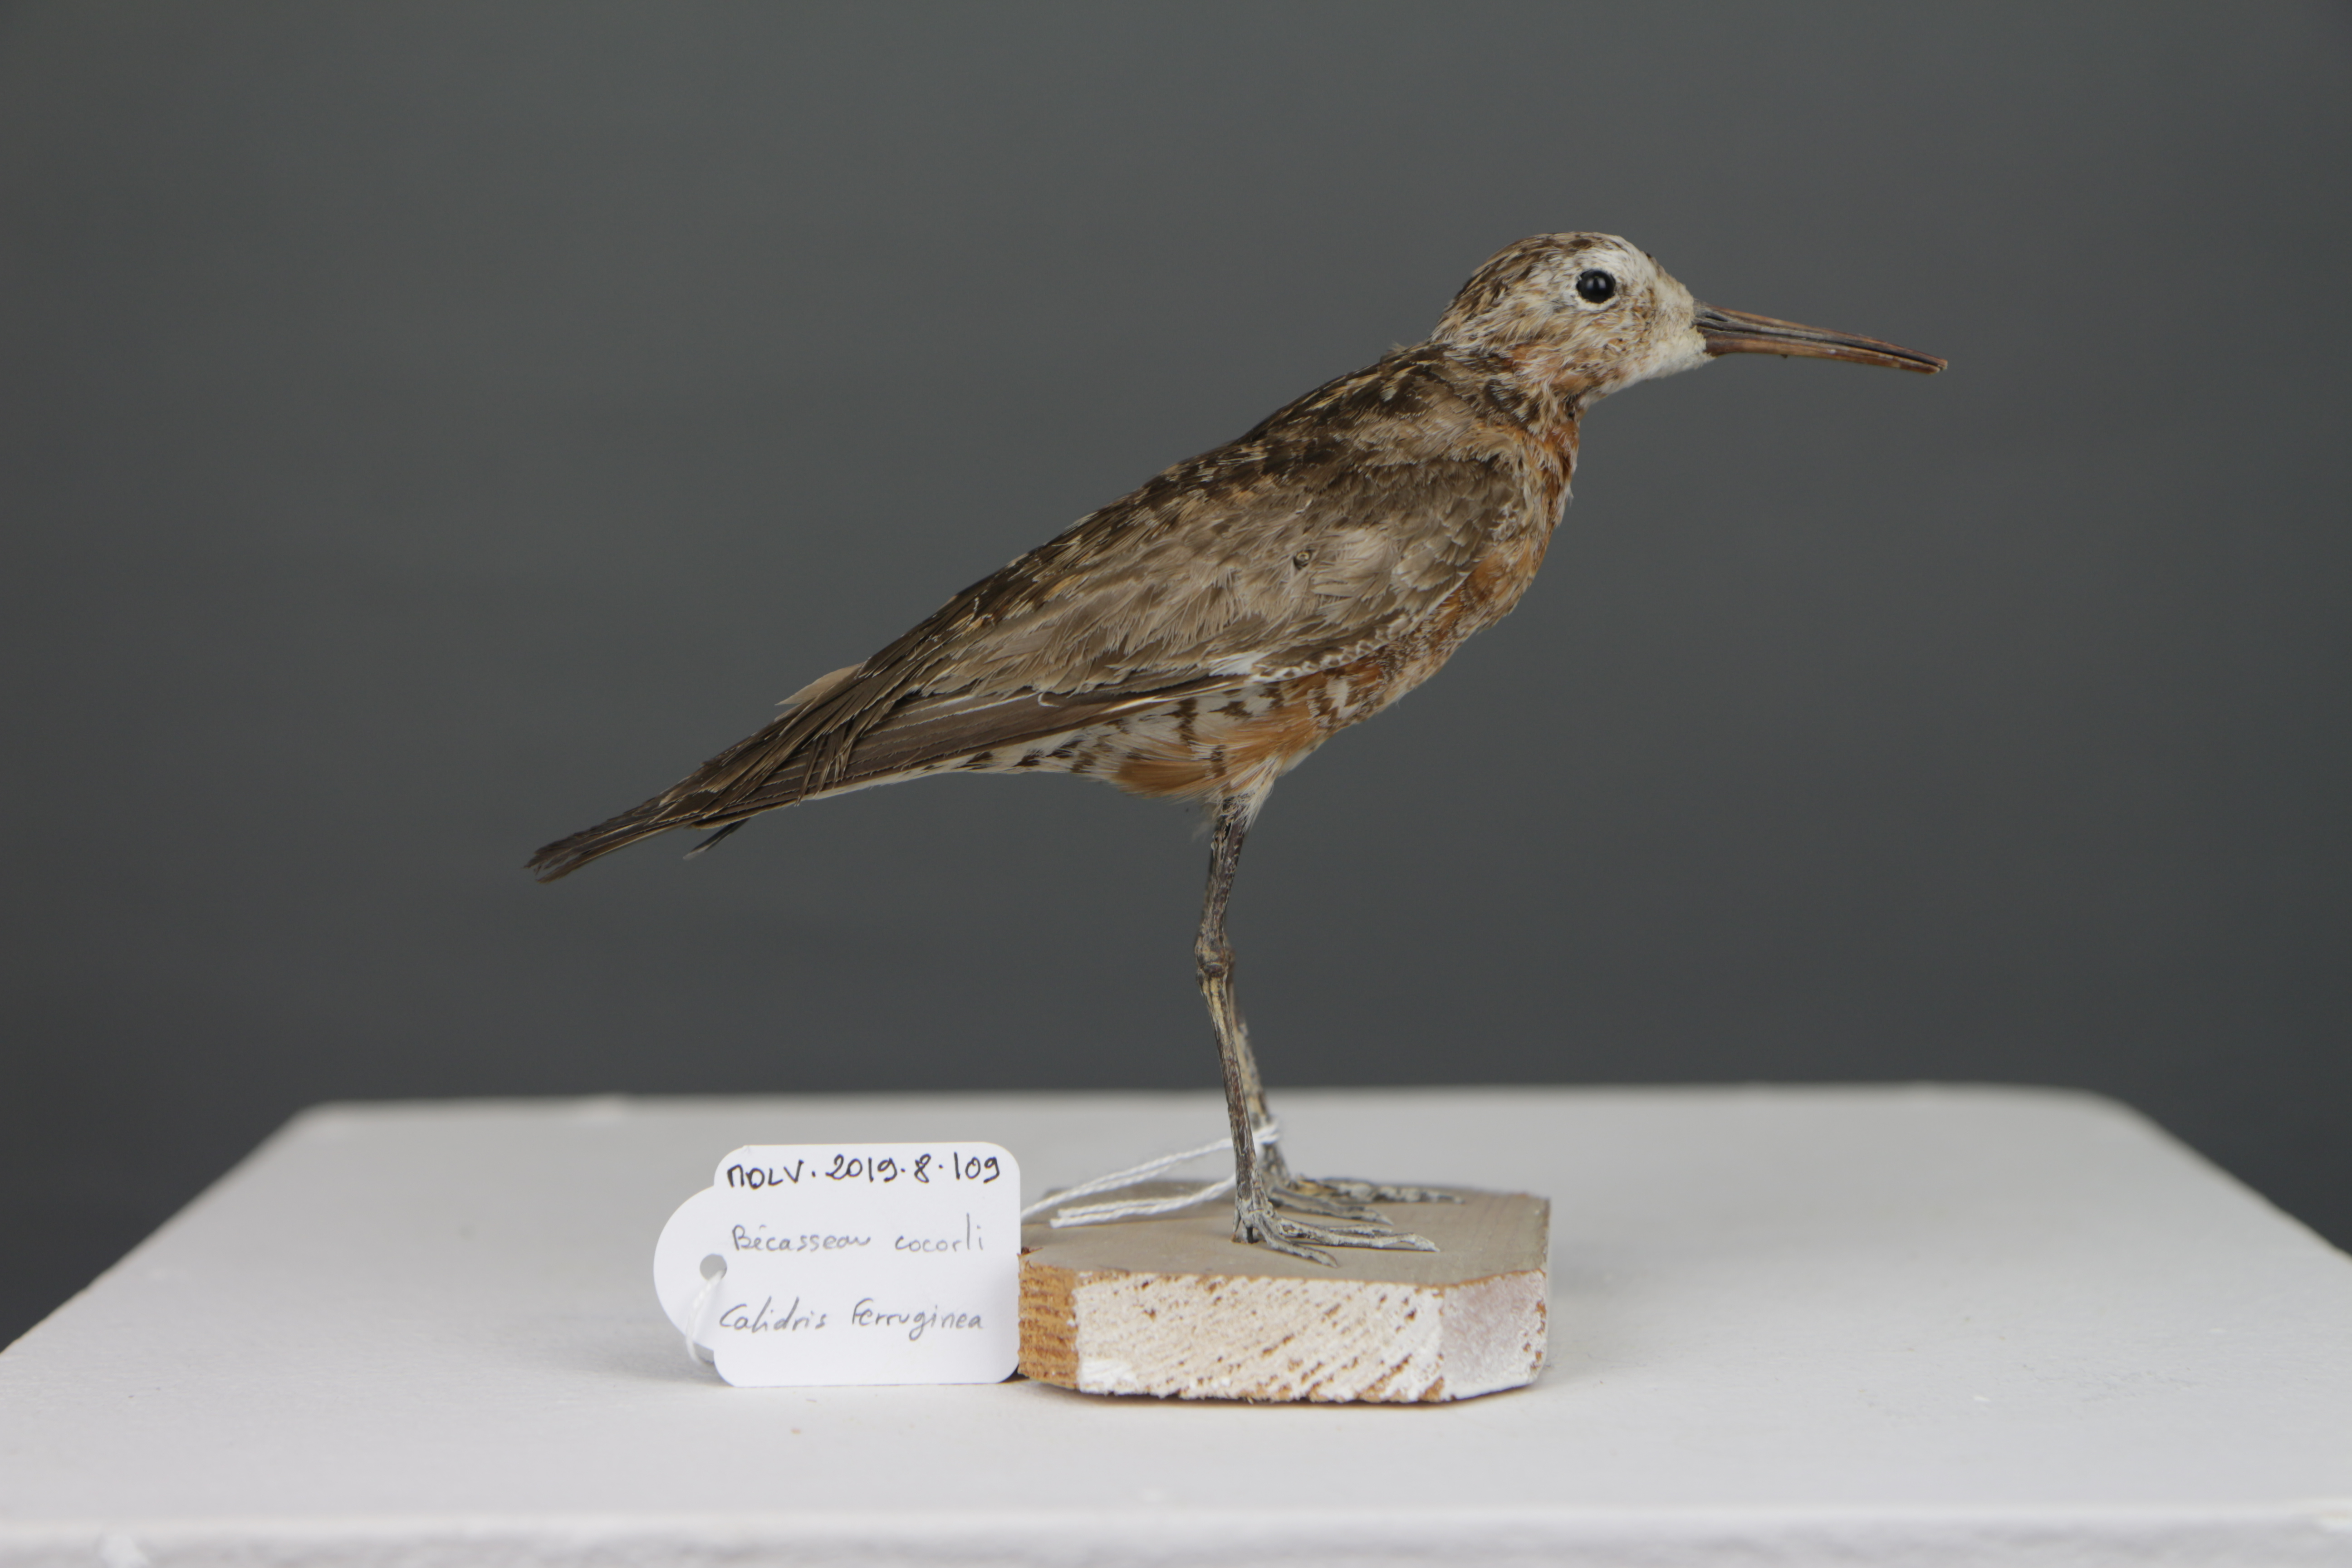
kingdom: Animalia
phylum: Chordata
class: Aves
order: Charadriiformes
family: Scolopacidae
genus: Calidris
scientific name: Calidris ferruginea
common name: Curlew sandpiper
